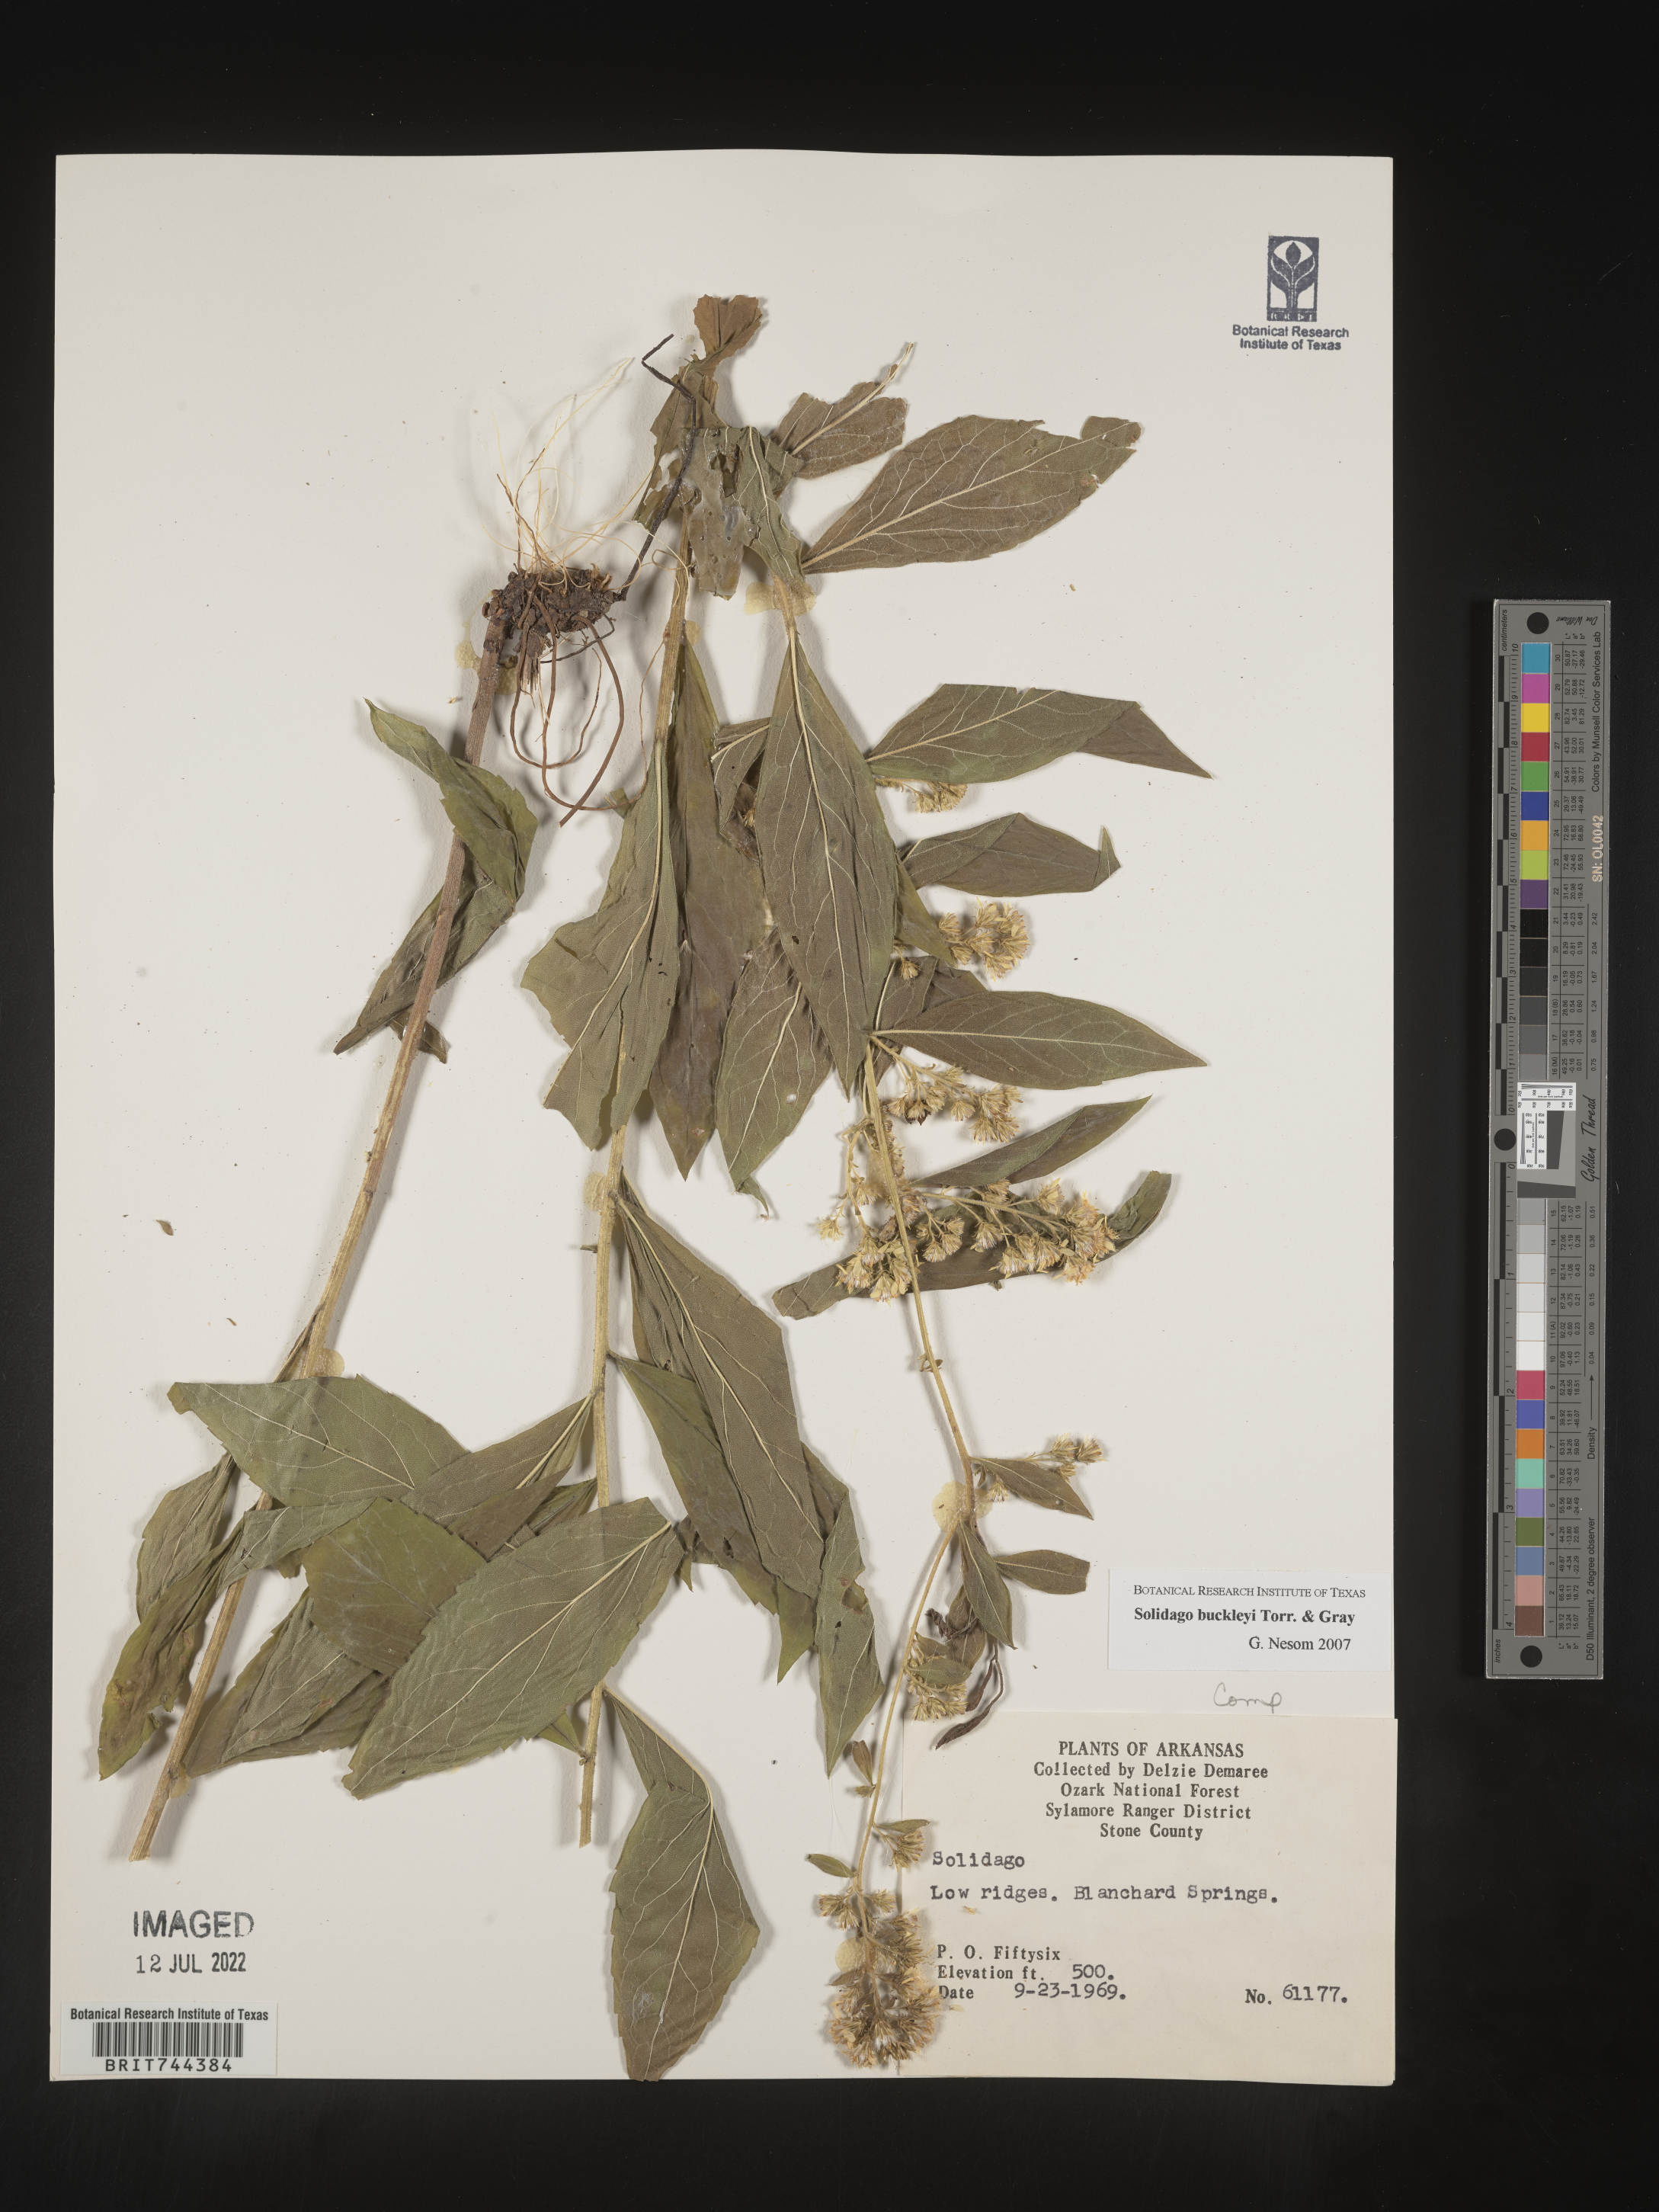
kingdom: Plantae
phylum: Tracheophyta
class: Magnoliopsida
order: Asterales
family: Asteraceae
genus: Solidago
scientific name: Solidago buckleyi
